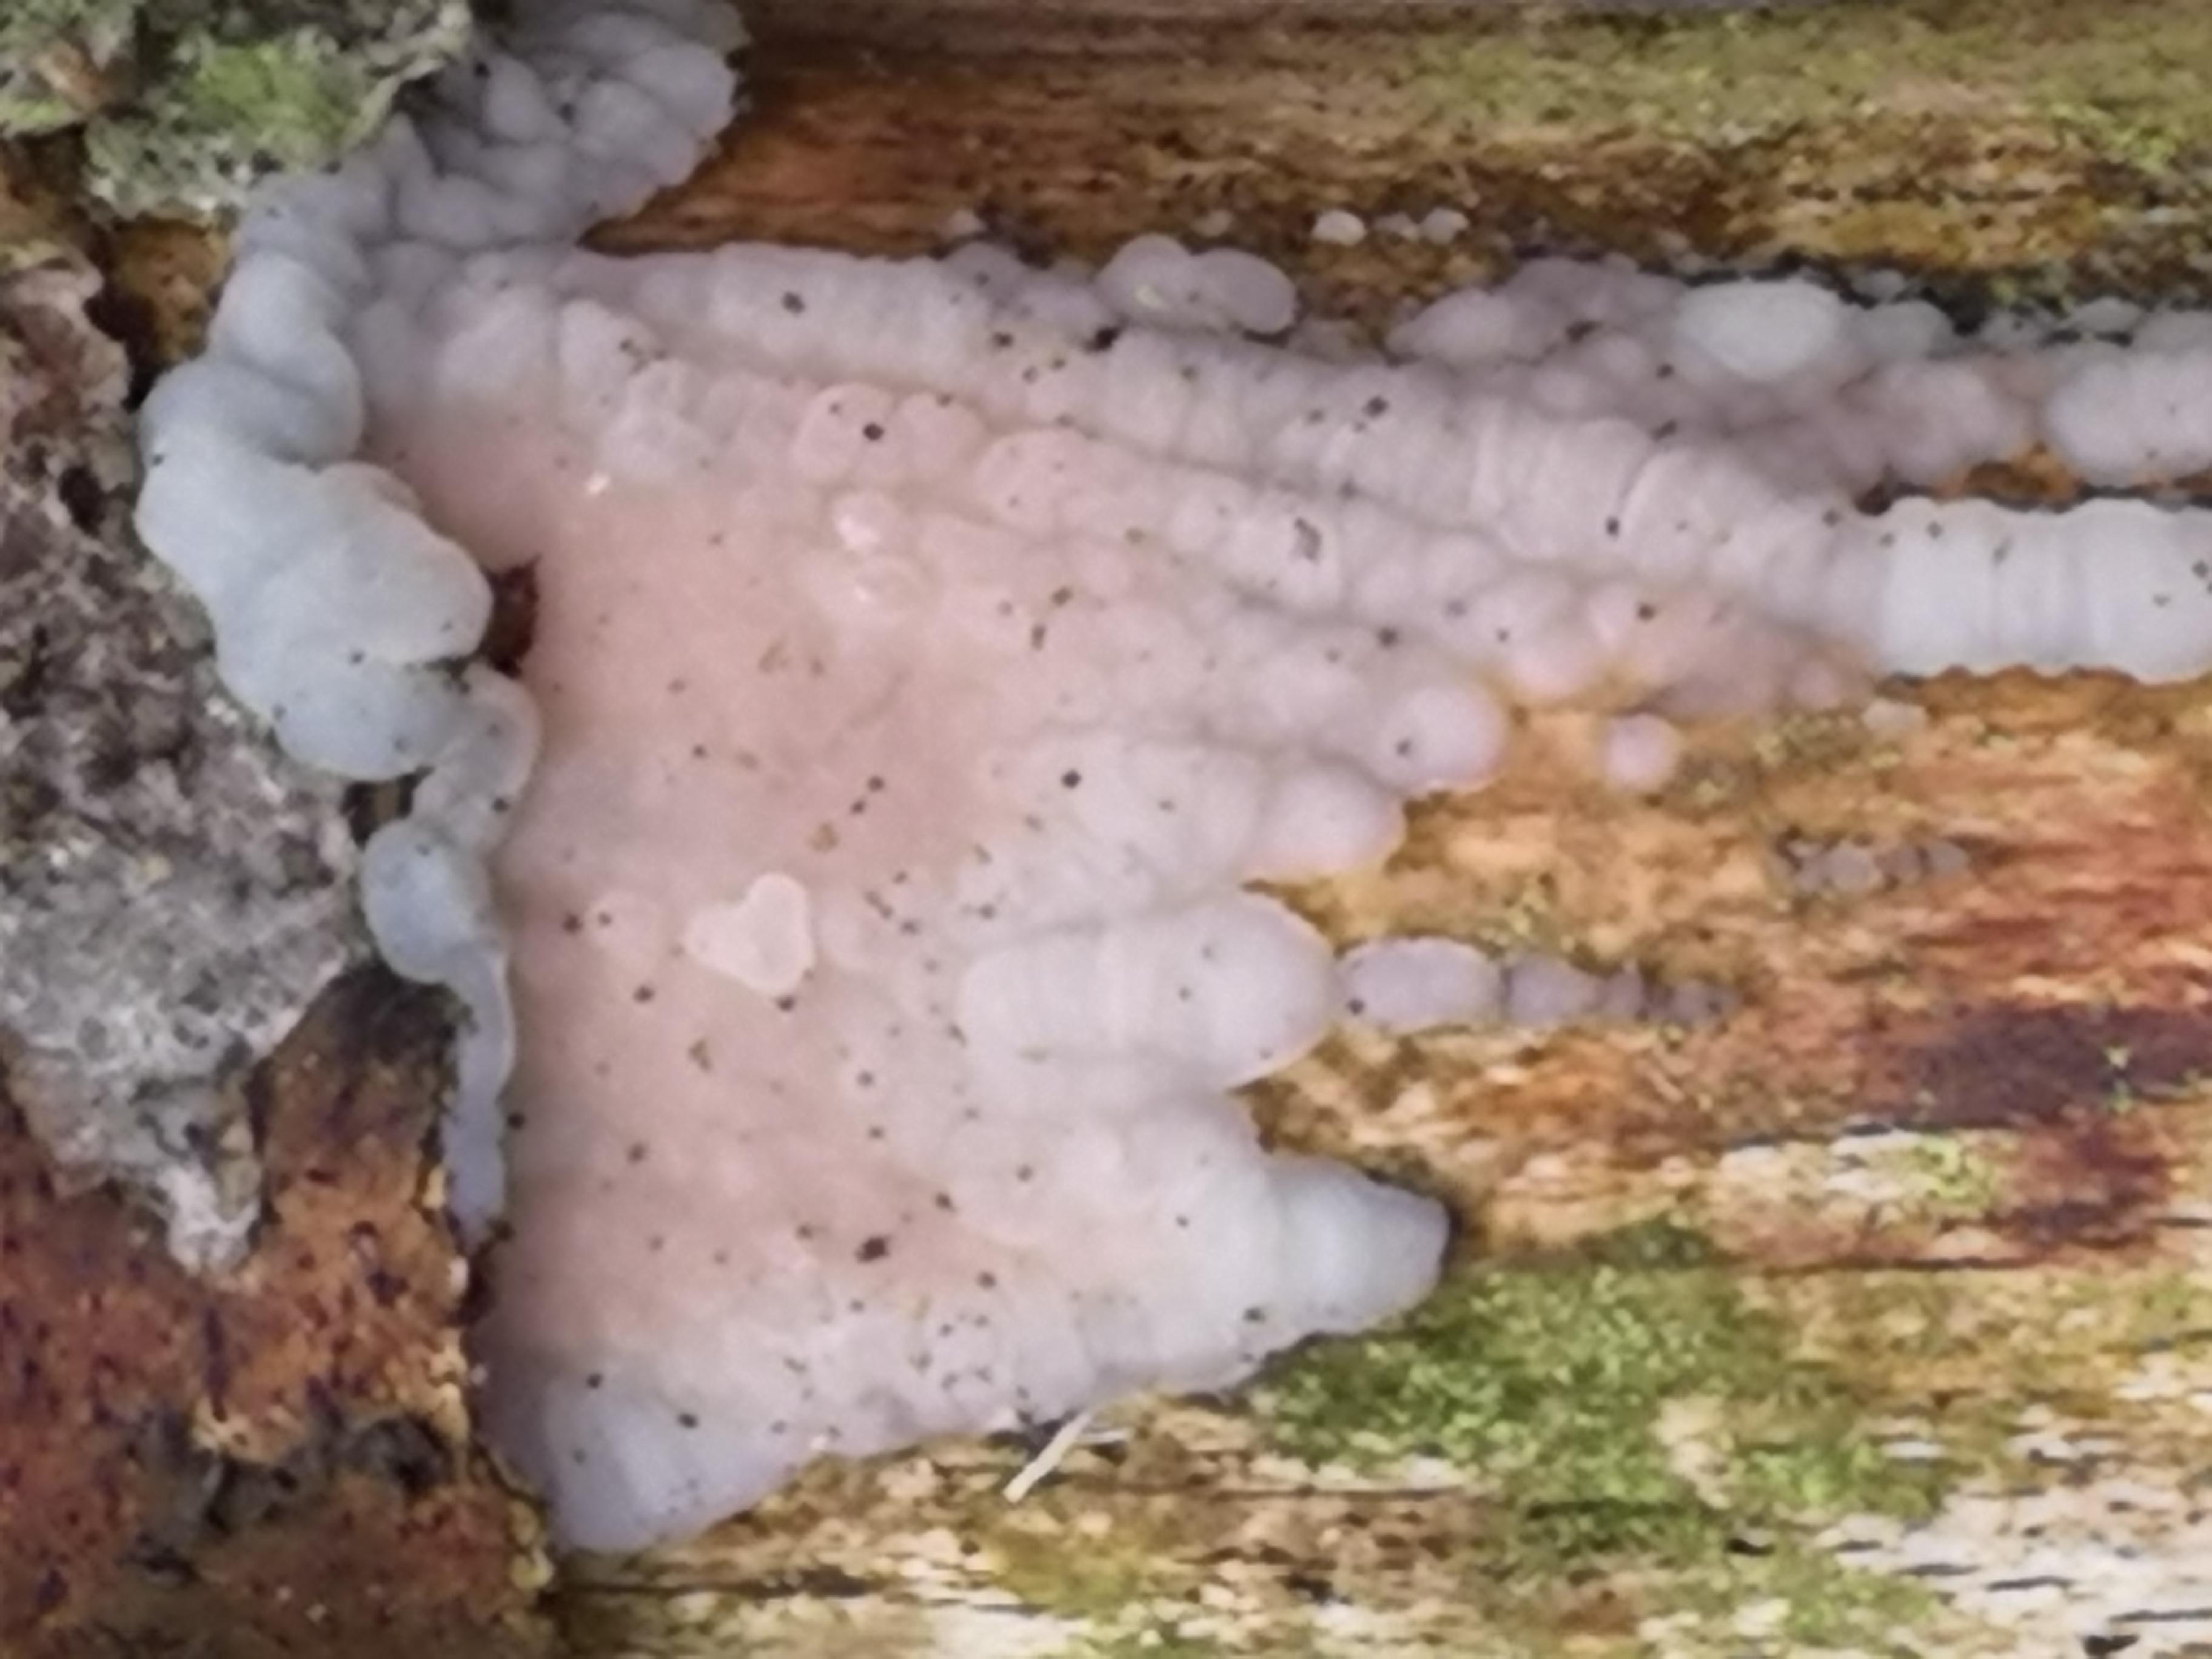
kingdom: Fungi
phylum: Basidiomycota
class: Agaricomycetes
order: Auriculariales
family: Auriculariaceae
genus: Exidia
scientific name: Exidia thuretiana
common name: hvidlig bævretop
